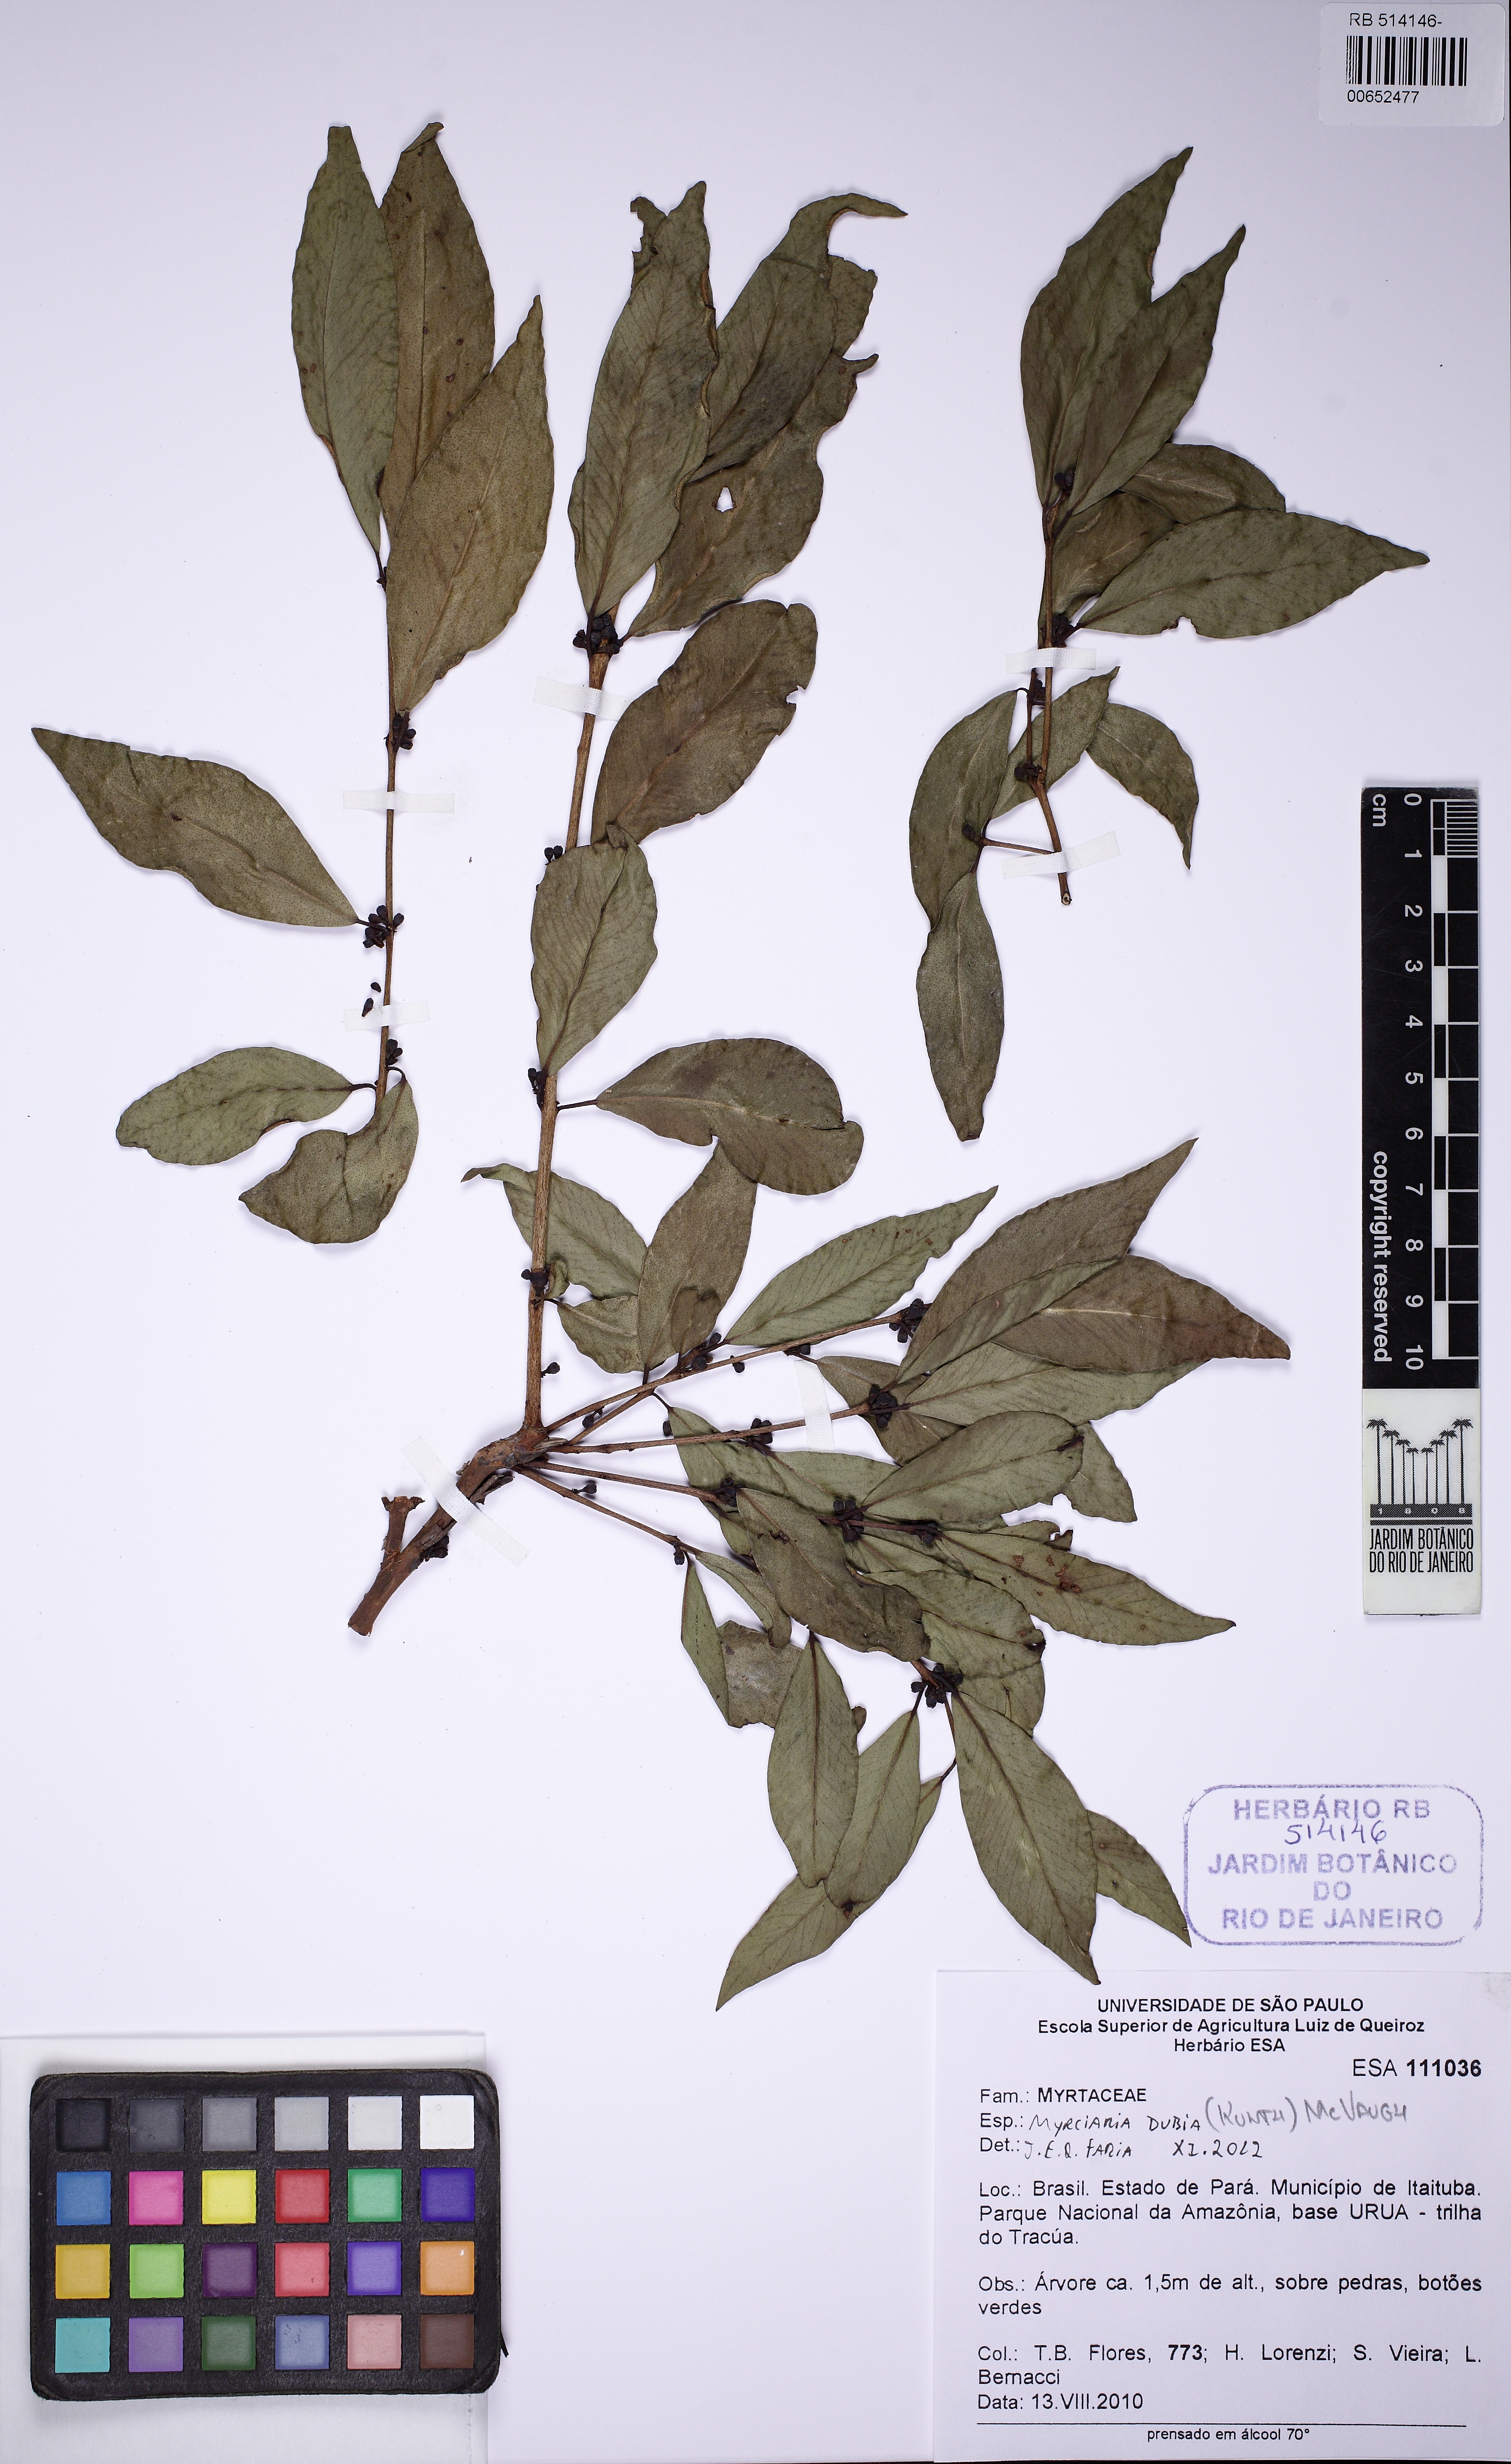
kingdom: Plantae
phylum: Tracheophyta
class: Magnoliopsida
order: Myrtales
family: Myrtaceae
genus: Myrciaria
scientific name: Myrciaria dubia
